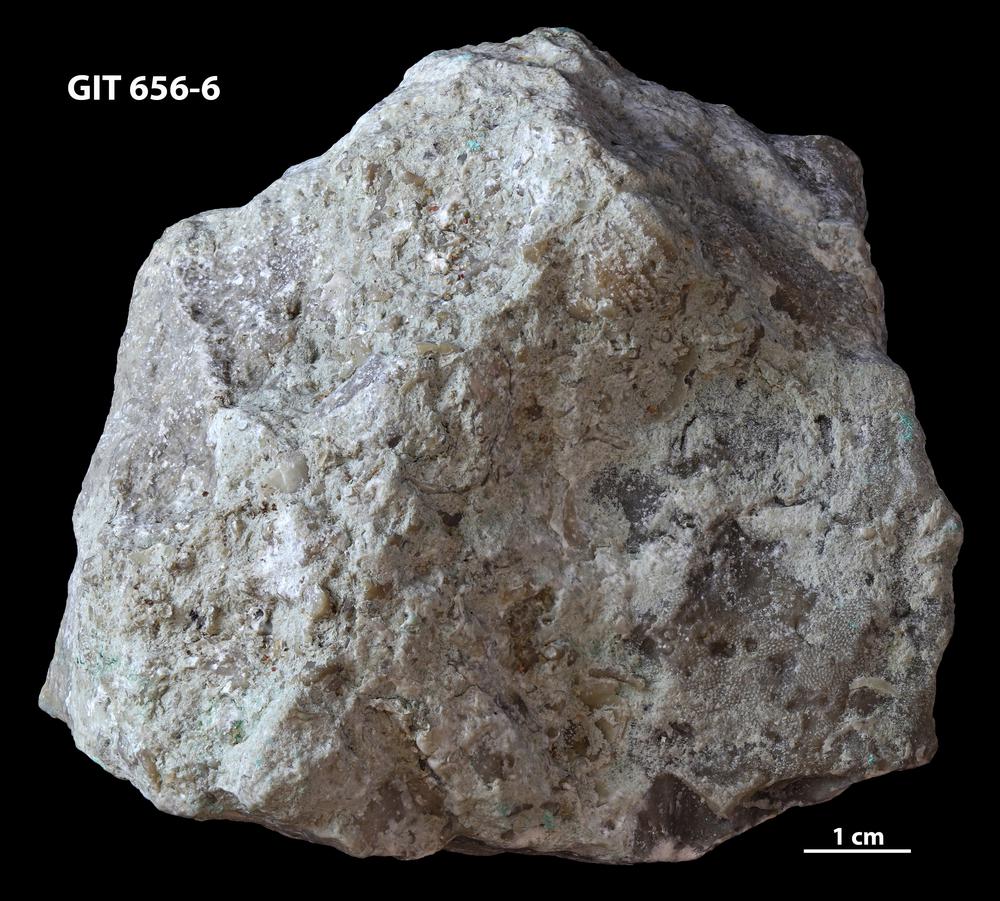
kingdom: Animalia
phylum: Porifera
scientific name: Porifera
